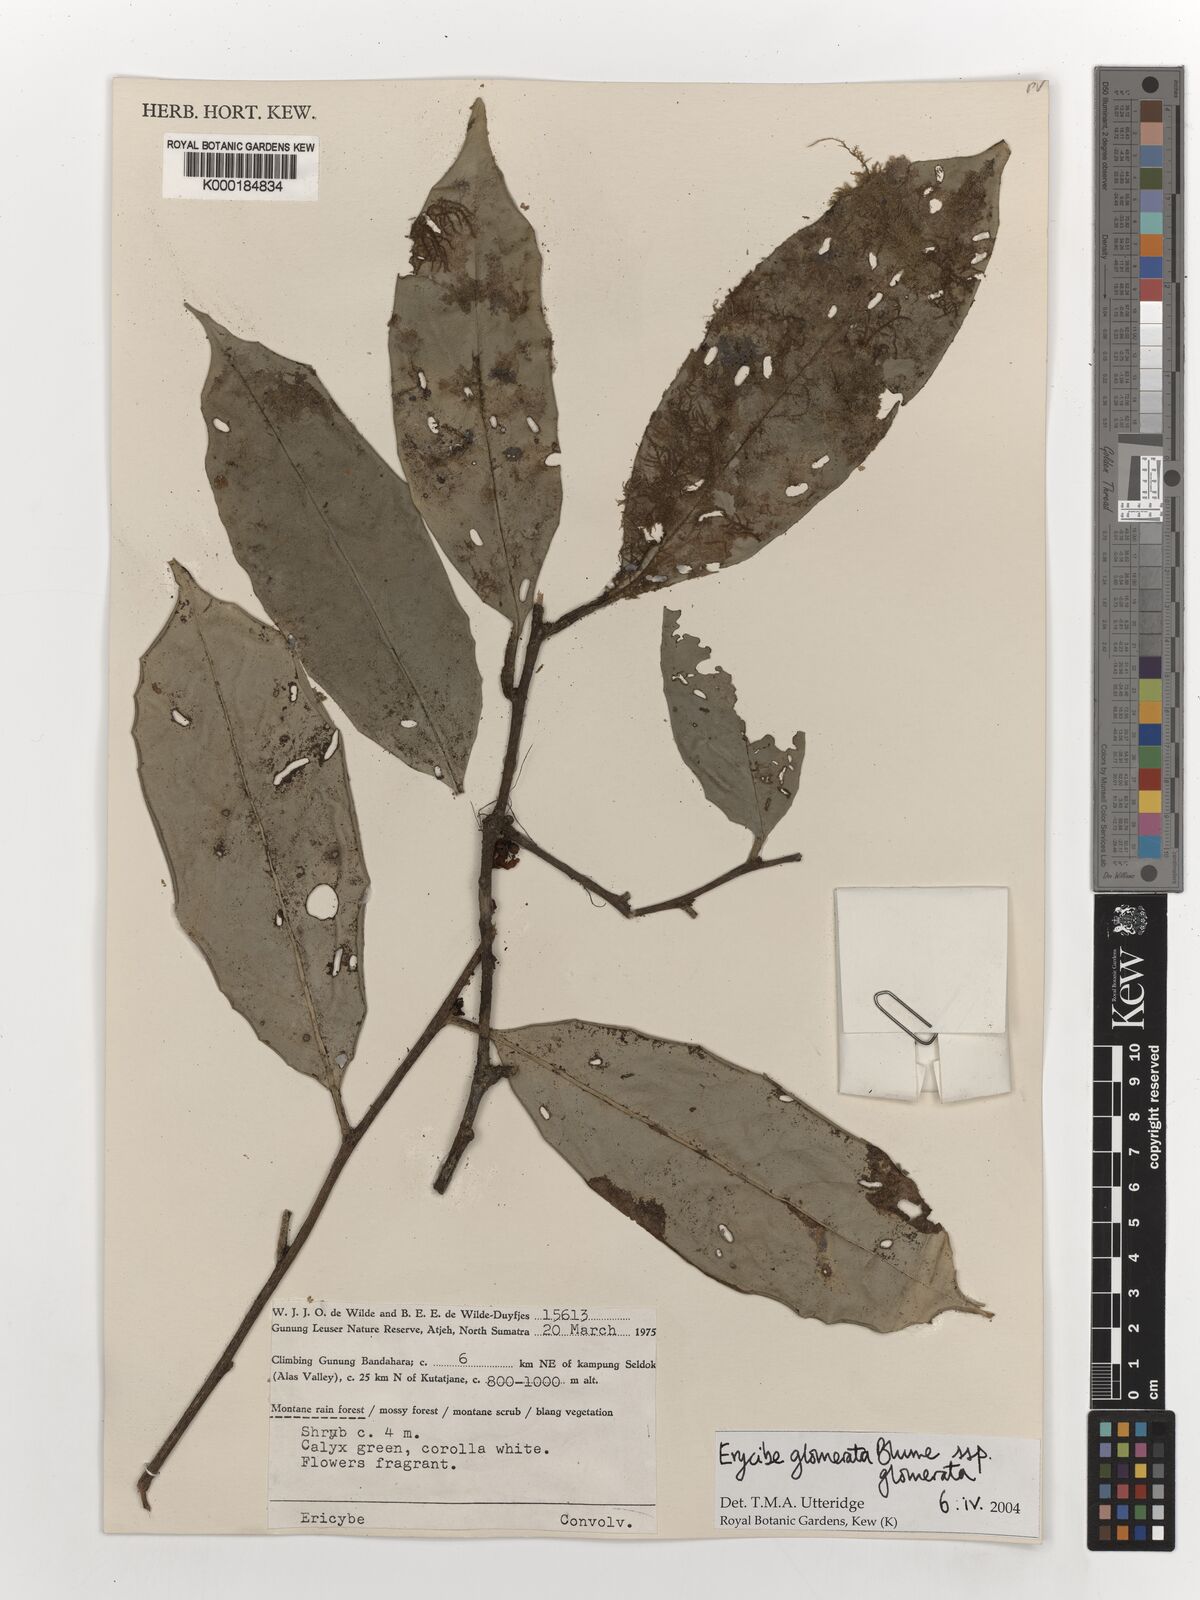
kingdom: Plantae
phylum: Tracheophyta
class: Magnoliopsida
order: Solanales
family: Convolvulaceae
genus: Erycibe
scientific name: Erycibe glomerata
